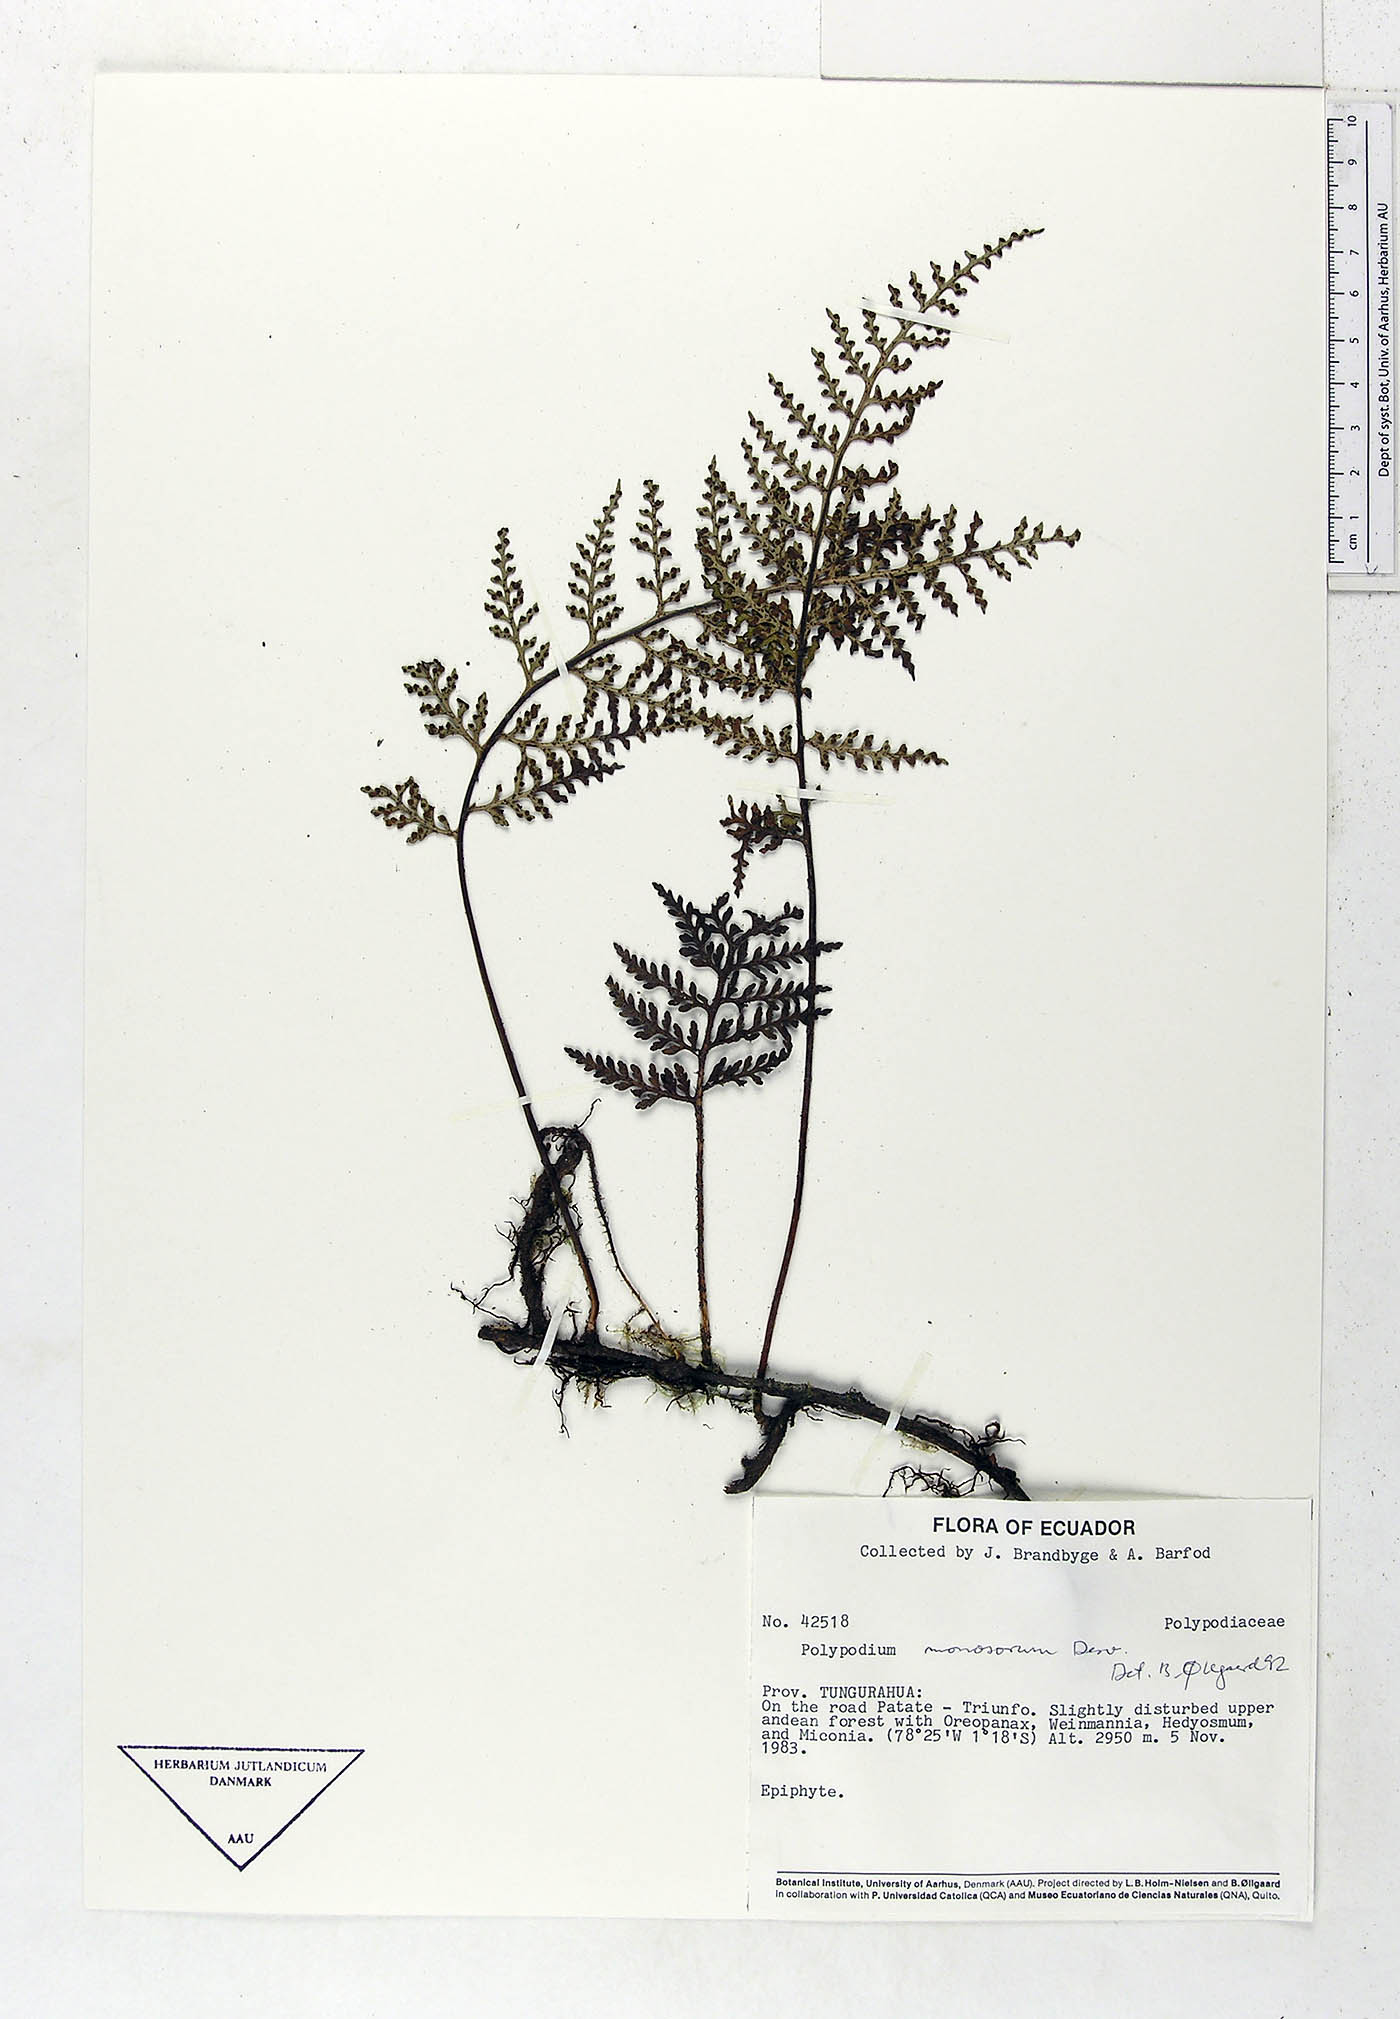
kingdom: Plantae
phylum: Tracheophyta
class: Polypodiopsida
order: Polypodiales
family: Polypodiaceae
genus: Pleopeltis
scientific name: Pleopeltis monosora
